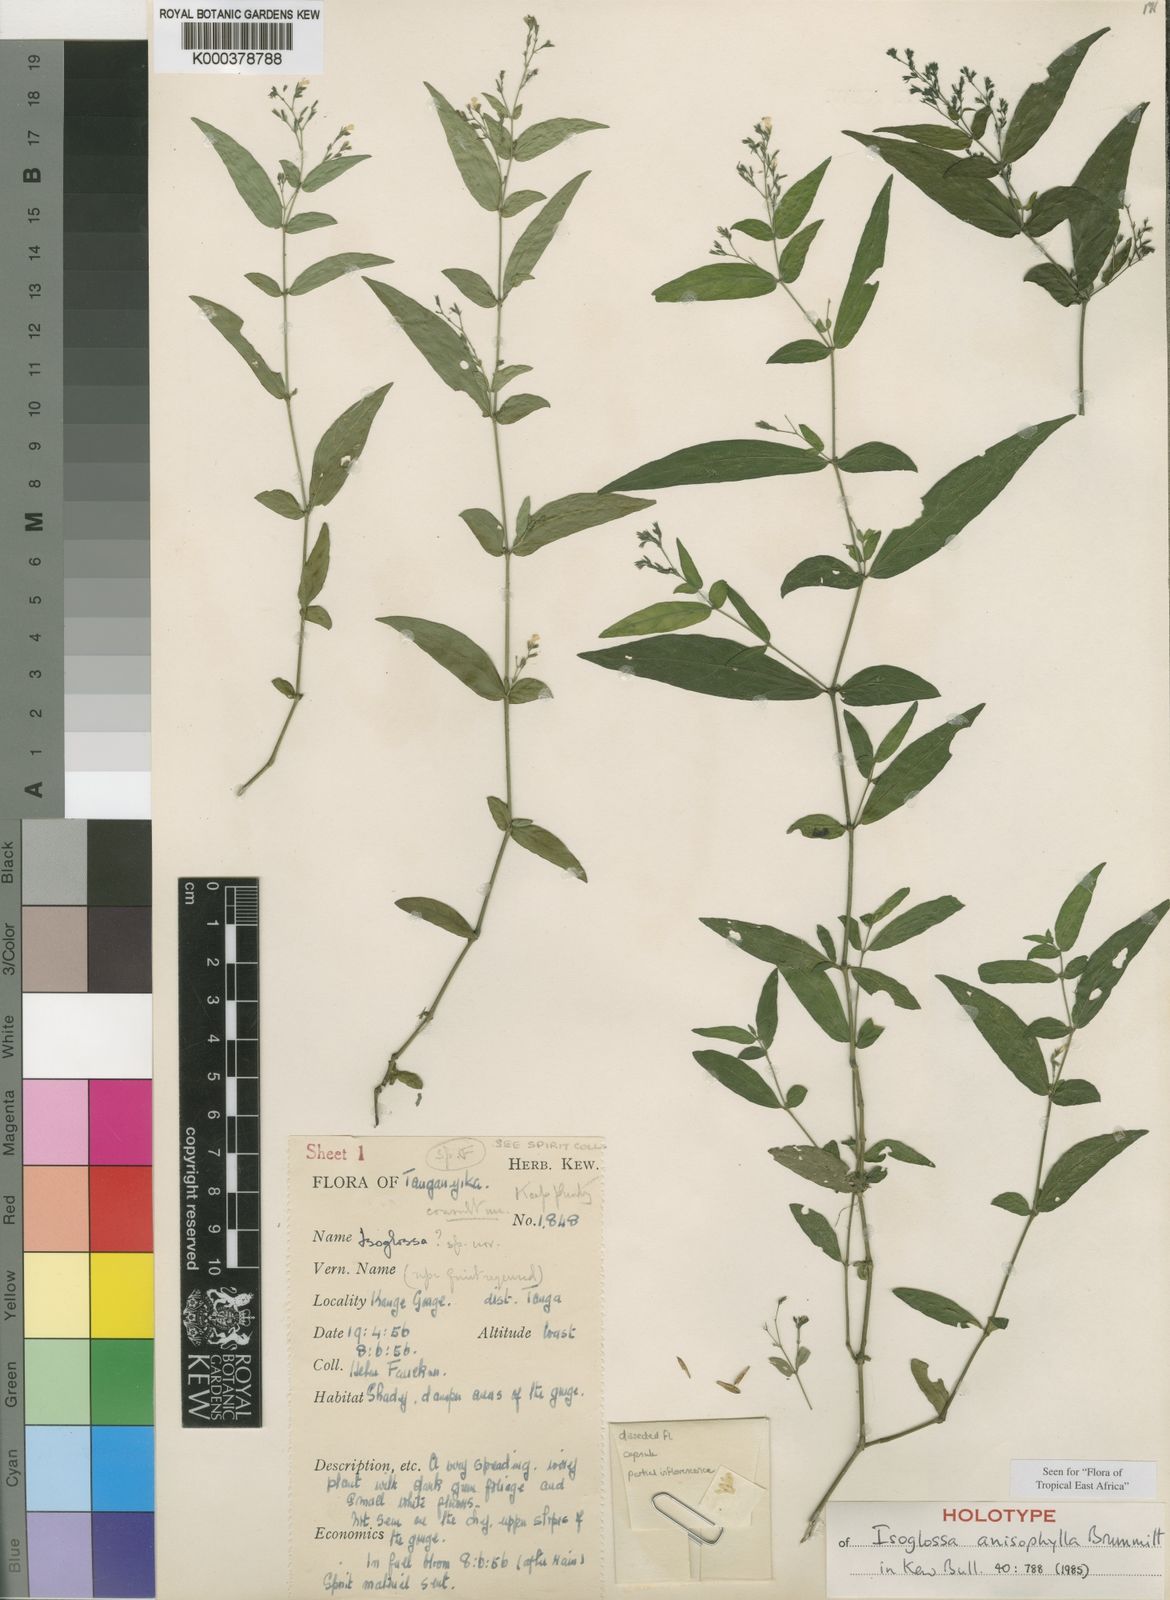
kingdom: Plantae
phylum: Tracheophyta
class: Magnoliopsida
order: Lamiales
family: Acanthaceae
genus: Isoglossa
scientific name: Isoglossa anisophylla
